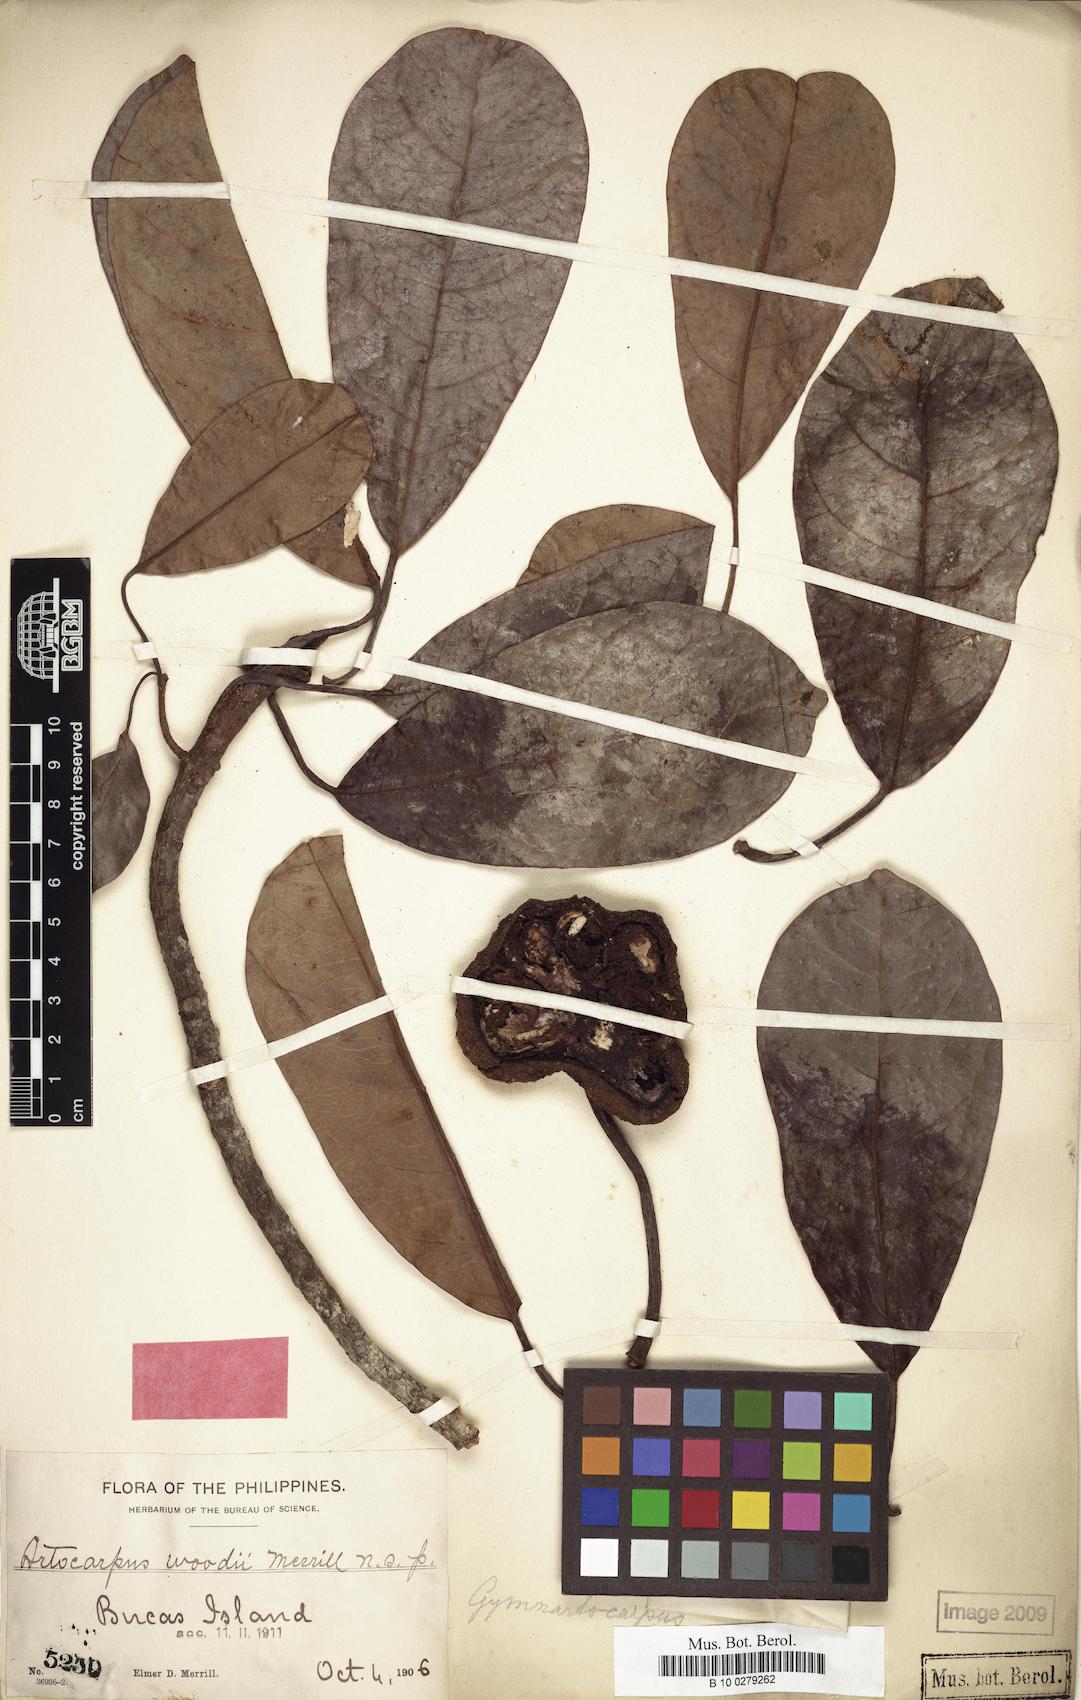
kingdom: Plantae
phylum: Tracheophyta
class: Magnoliopsida
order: Rosales
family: Moraceae
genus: Parartocarpus
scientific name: Parartocarpus venenosa
